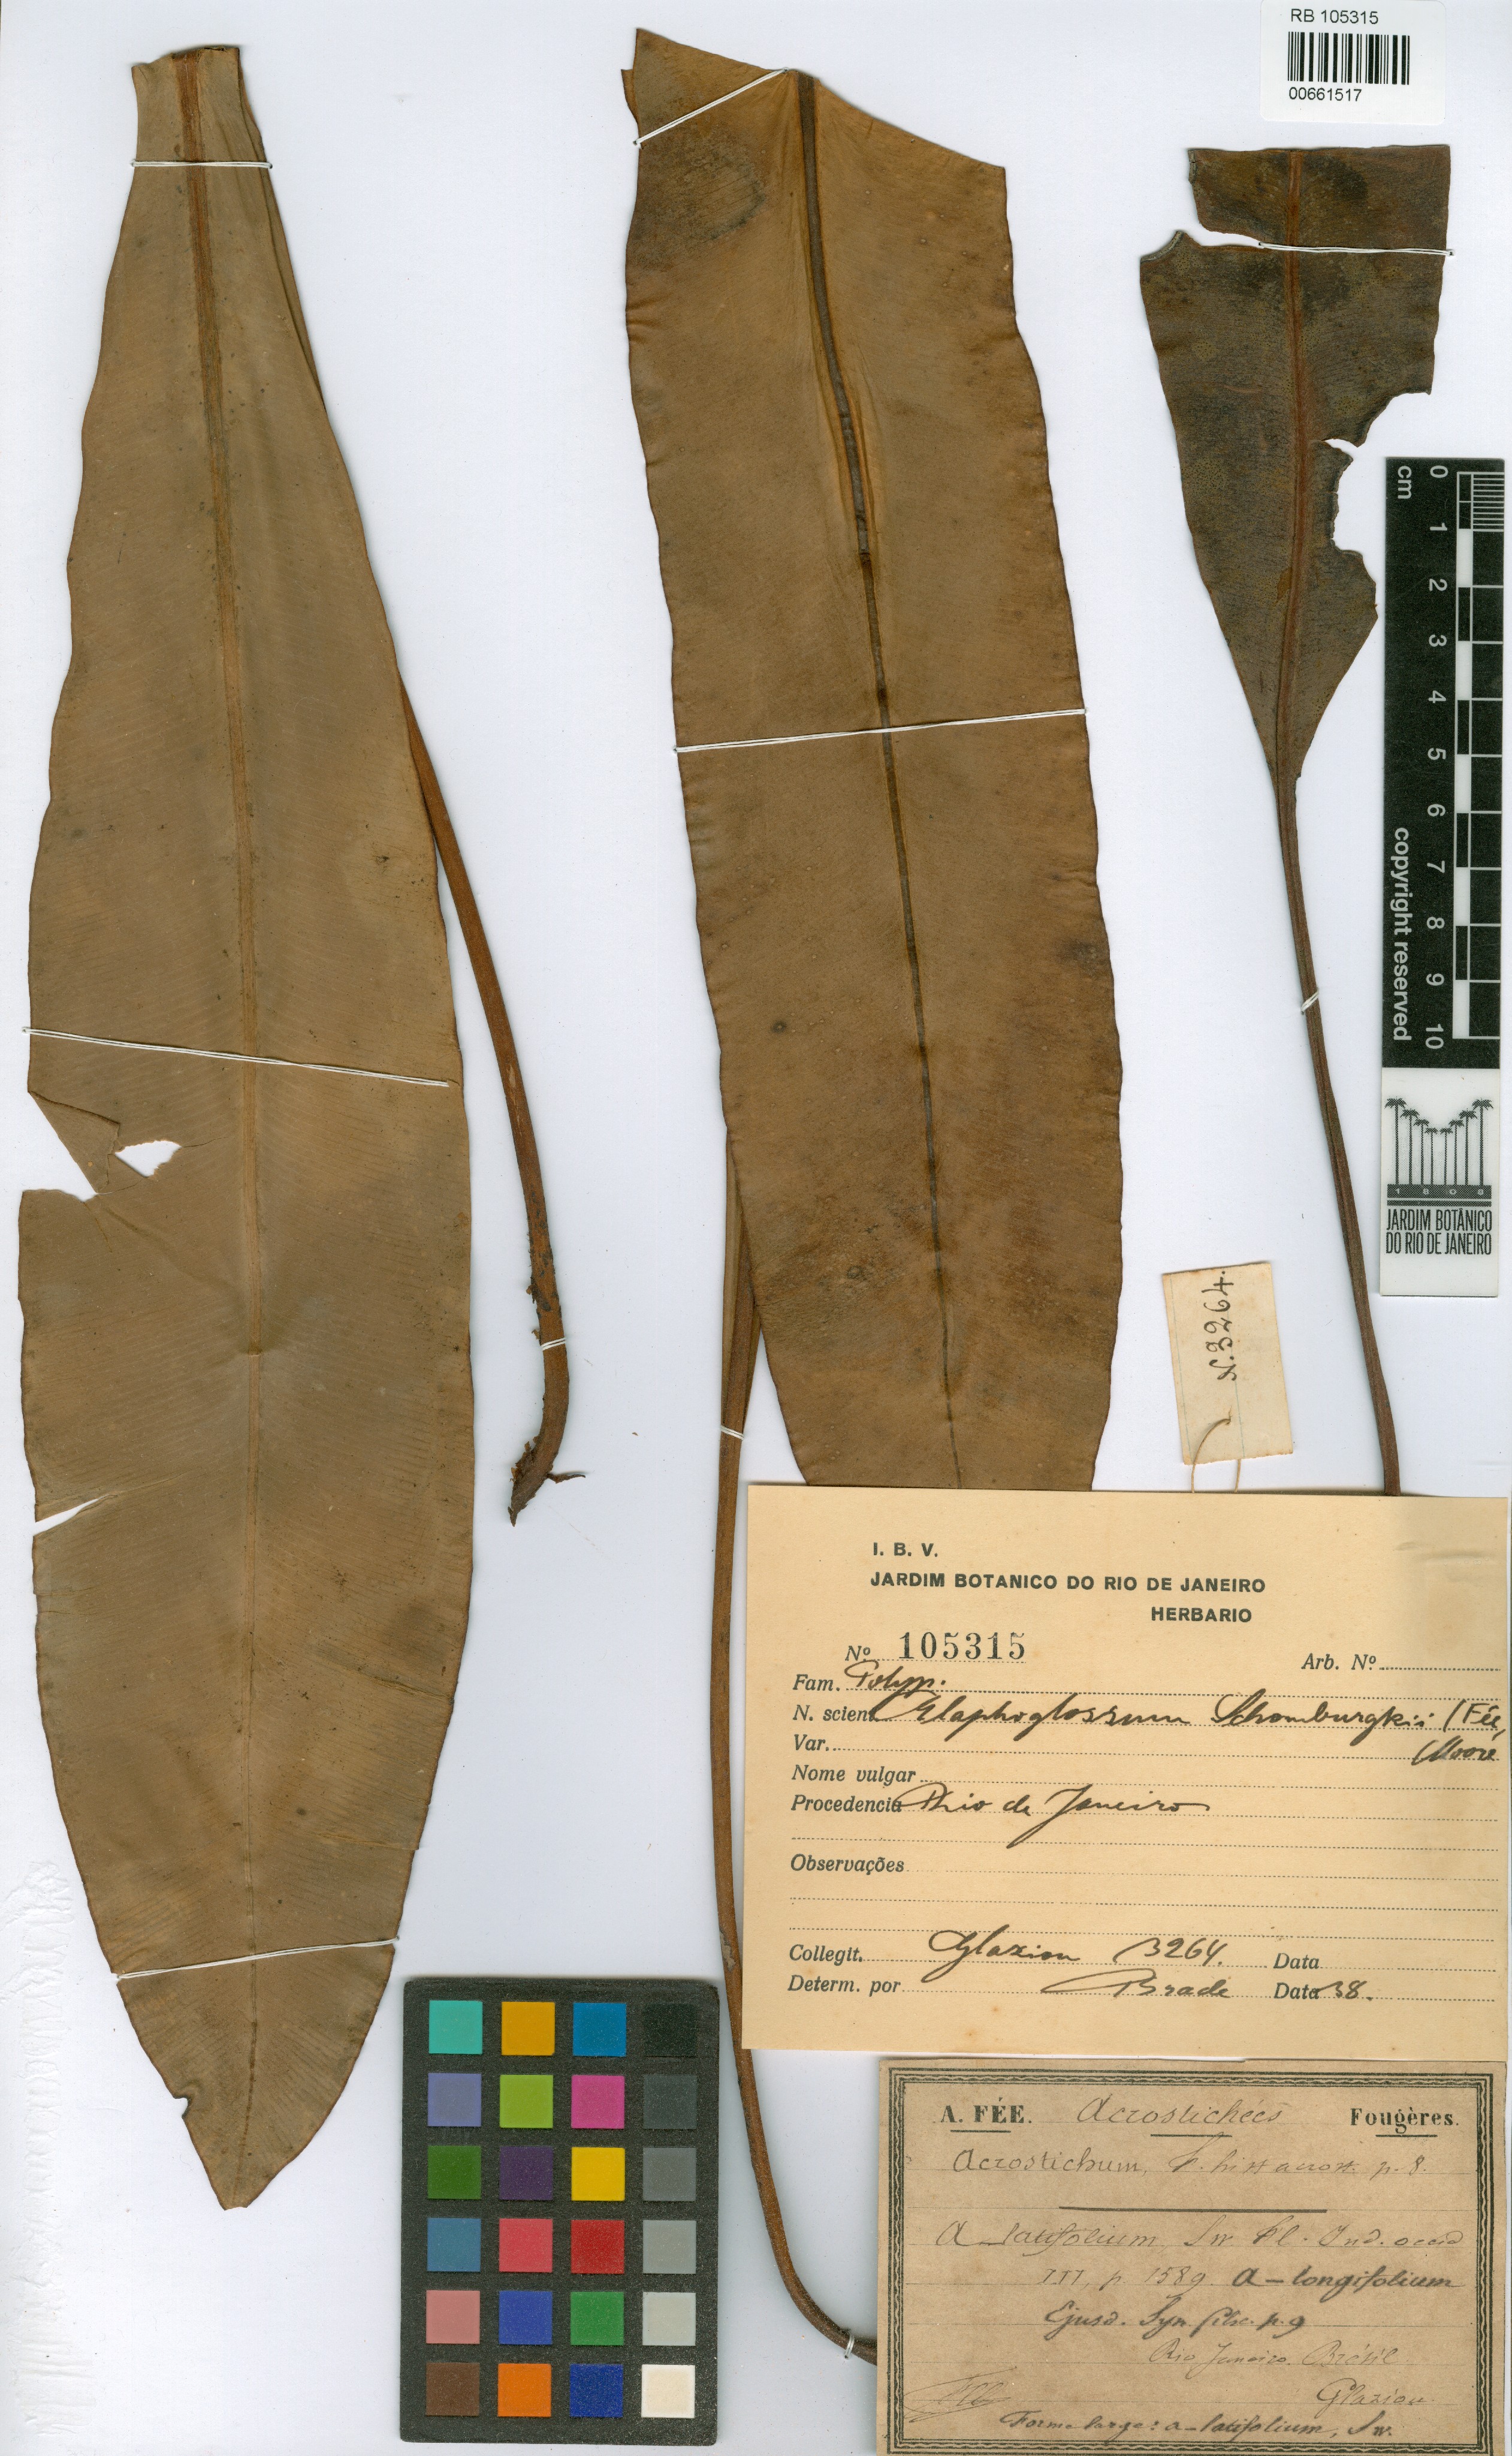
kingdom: Plantae
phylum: Tracheophyta
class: Polypodiopsida
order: Polypodiales
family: Dryopteridaceae
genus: Elaphoglossum
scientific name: Elaphoglossum luridum
